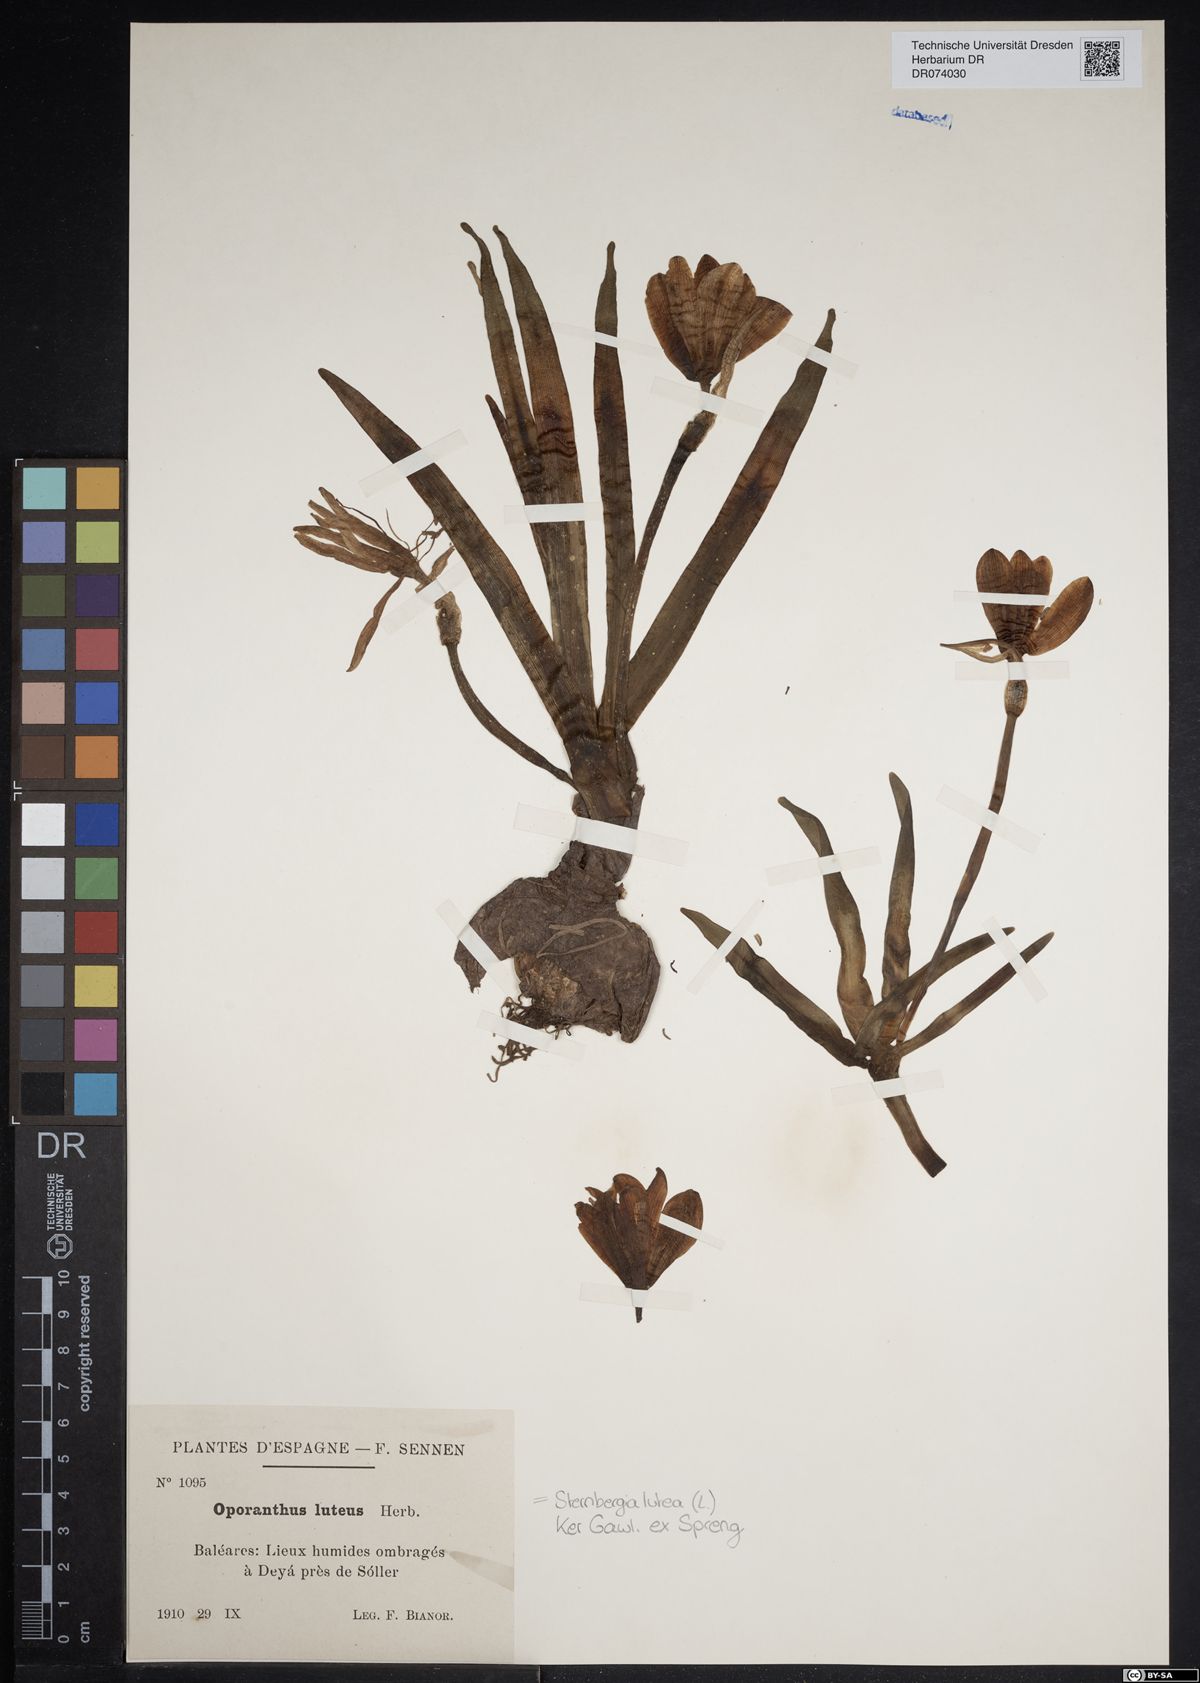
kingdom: Plantae
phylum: Tracheophyta
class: Liliopsida
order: Asparagales
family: Amaryllidaceae
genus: Sternbergia
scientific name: Sternbergia lutea
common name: Winter daffodil
